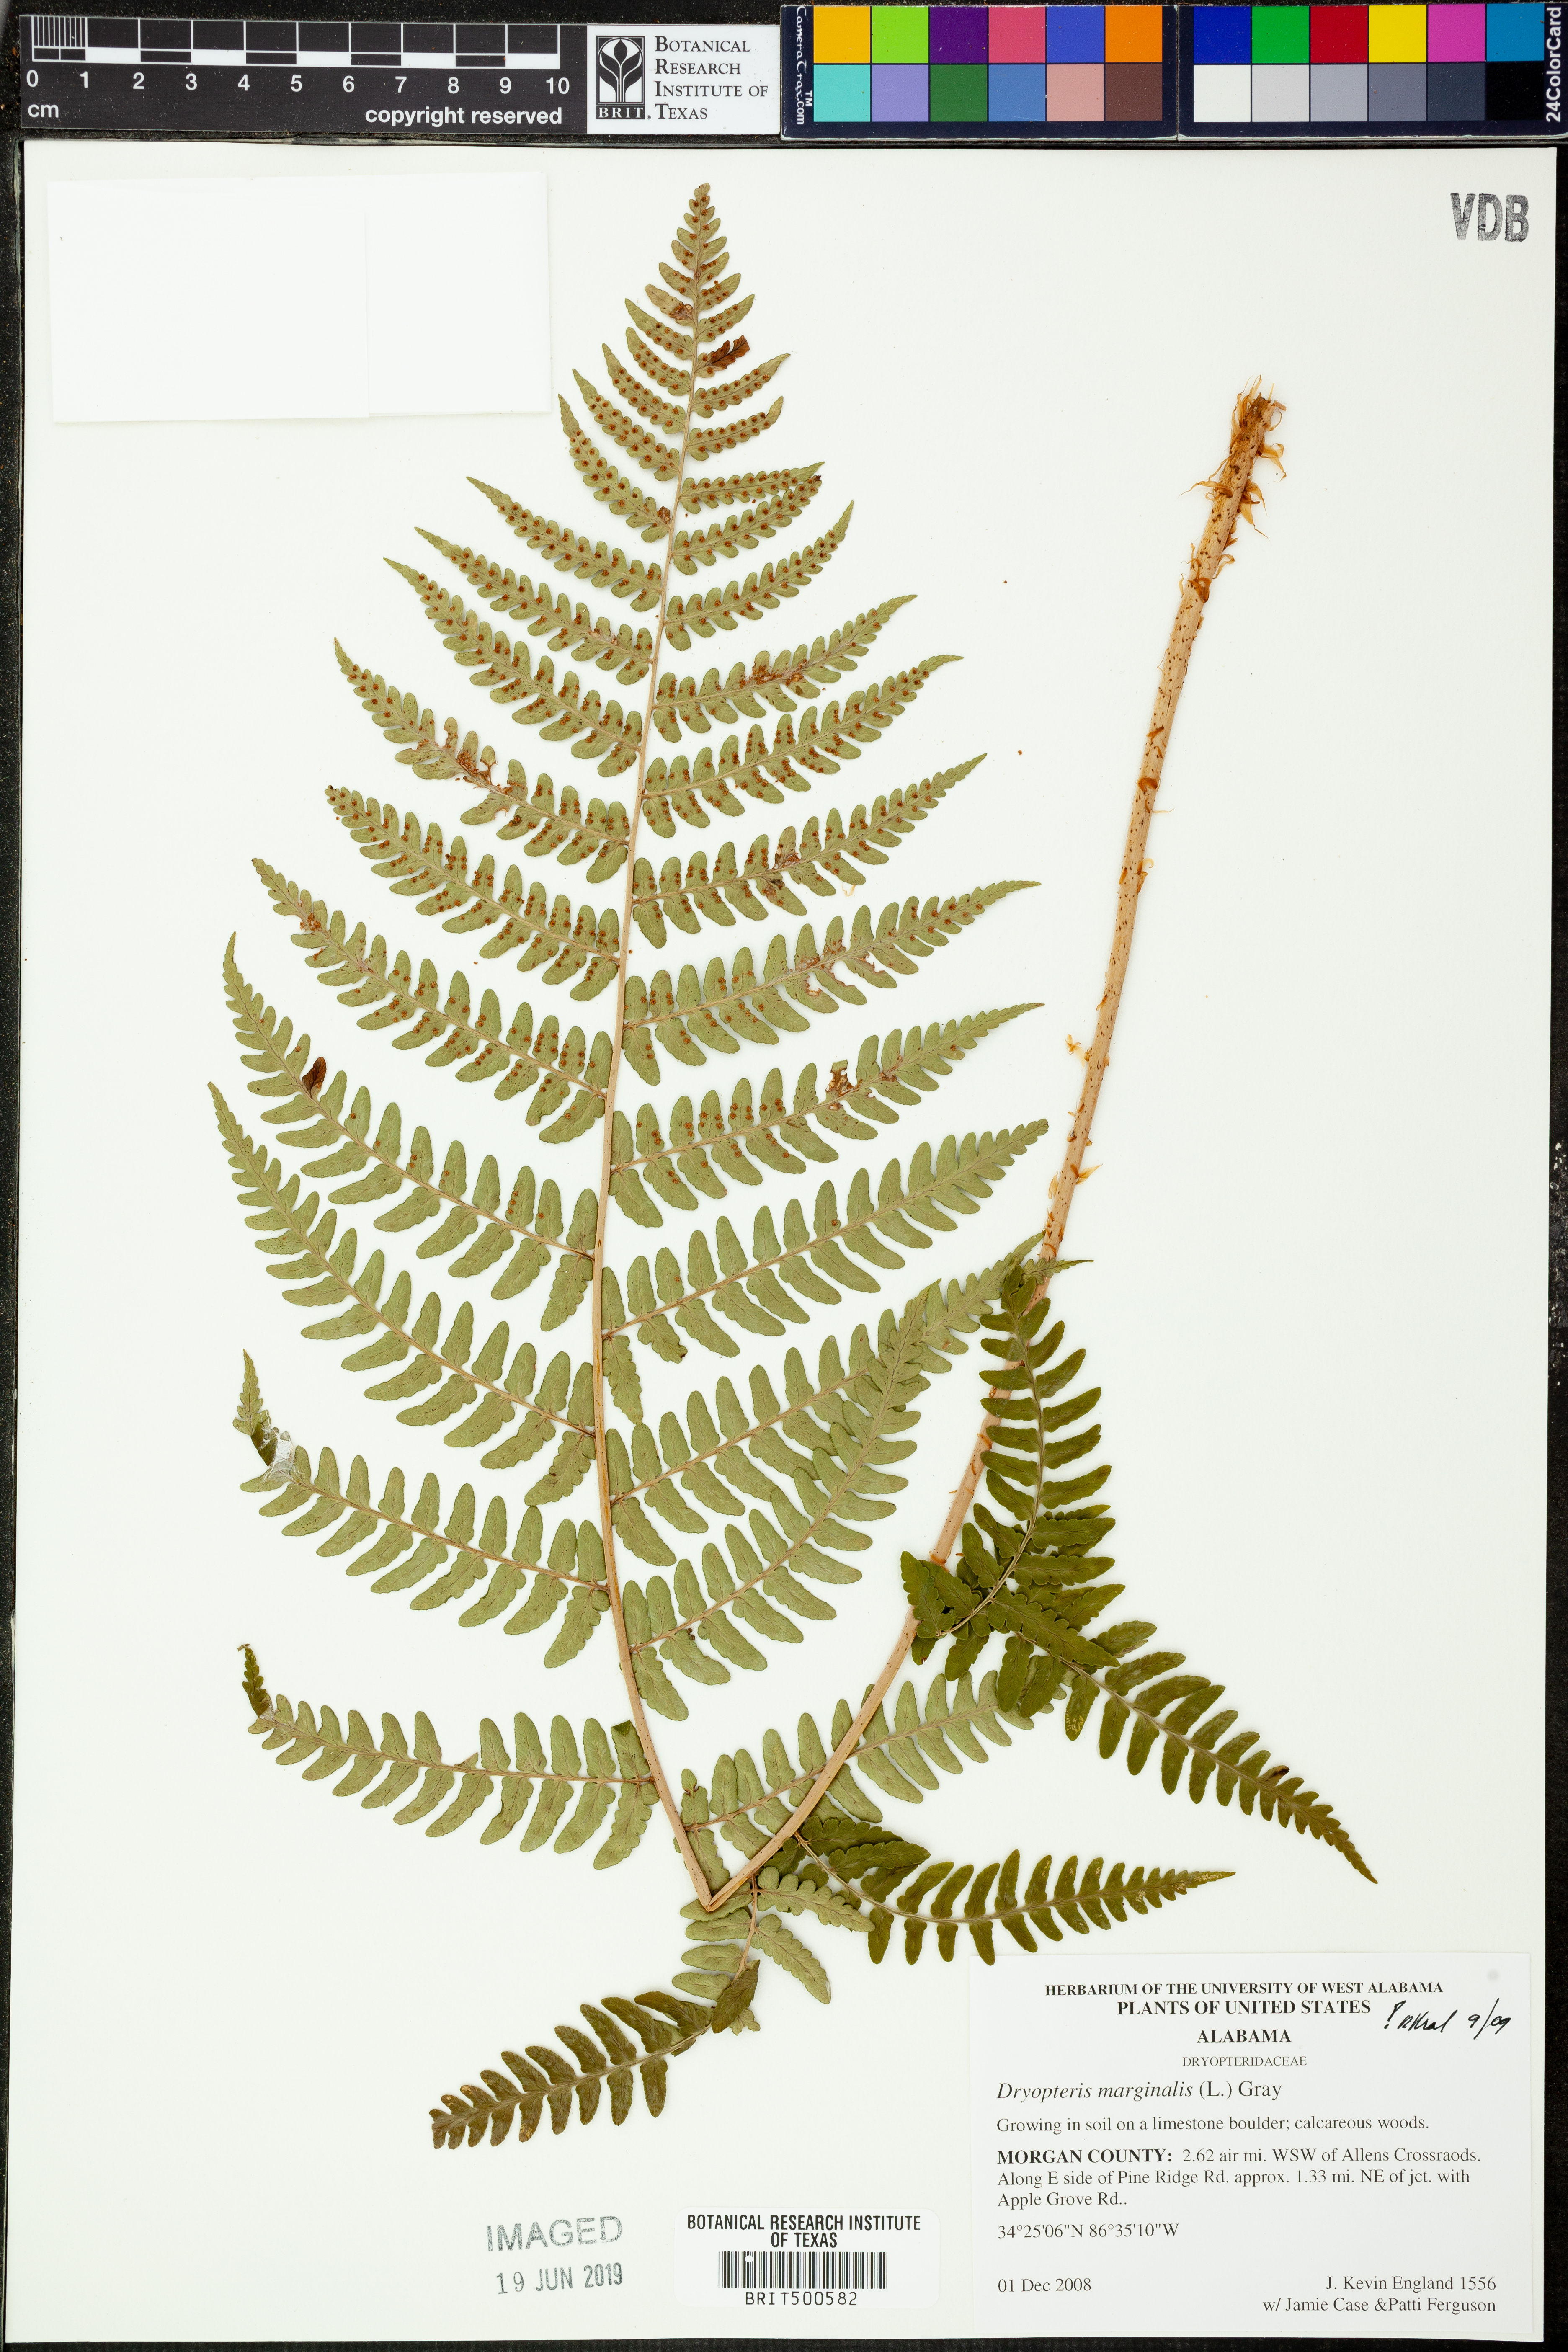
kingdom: Plantae
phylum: Tracheophyta
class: Polypodiopsida
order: Polypodiales
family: Dryopteridaceae
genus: Dryopteris
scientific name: Dryopteris marginalis
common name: Marginal wood fern
